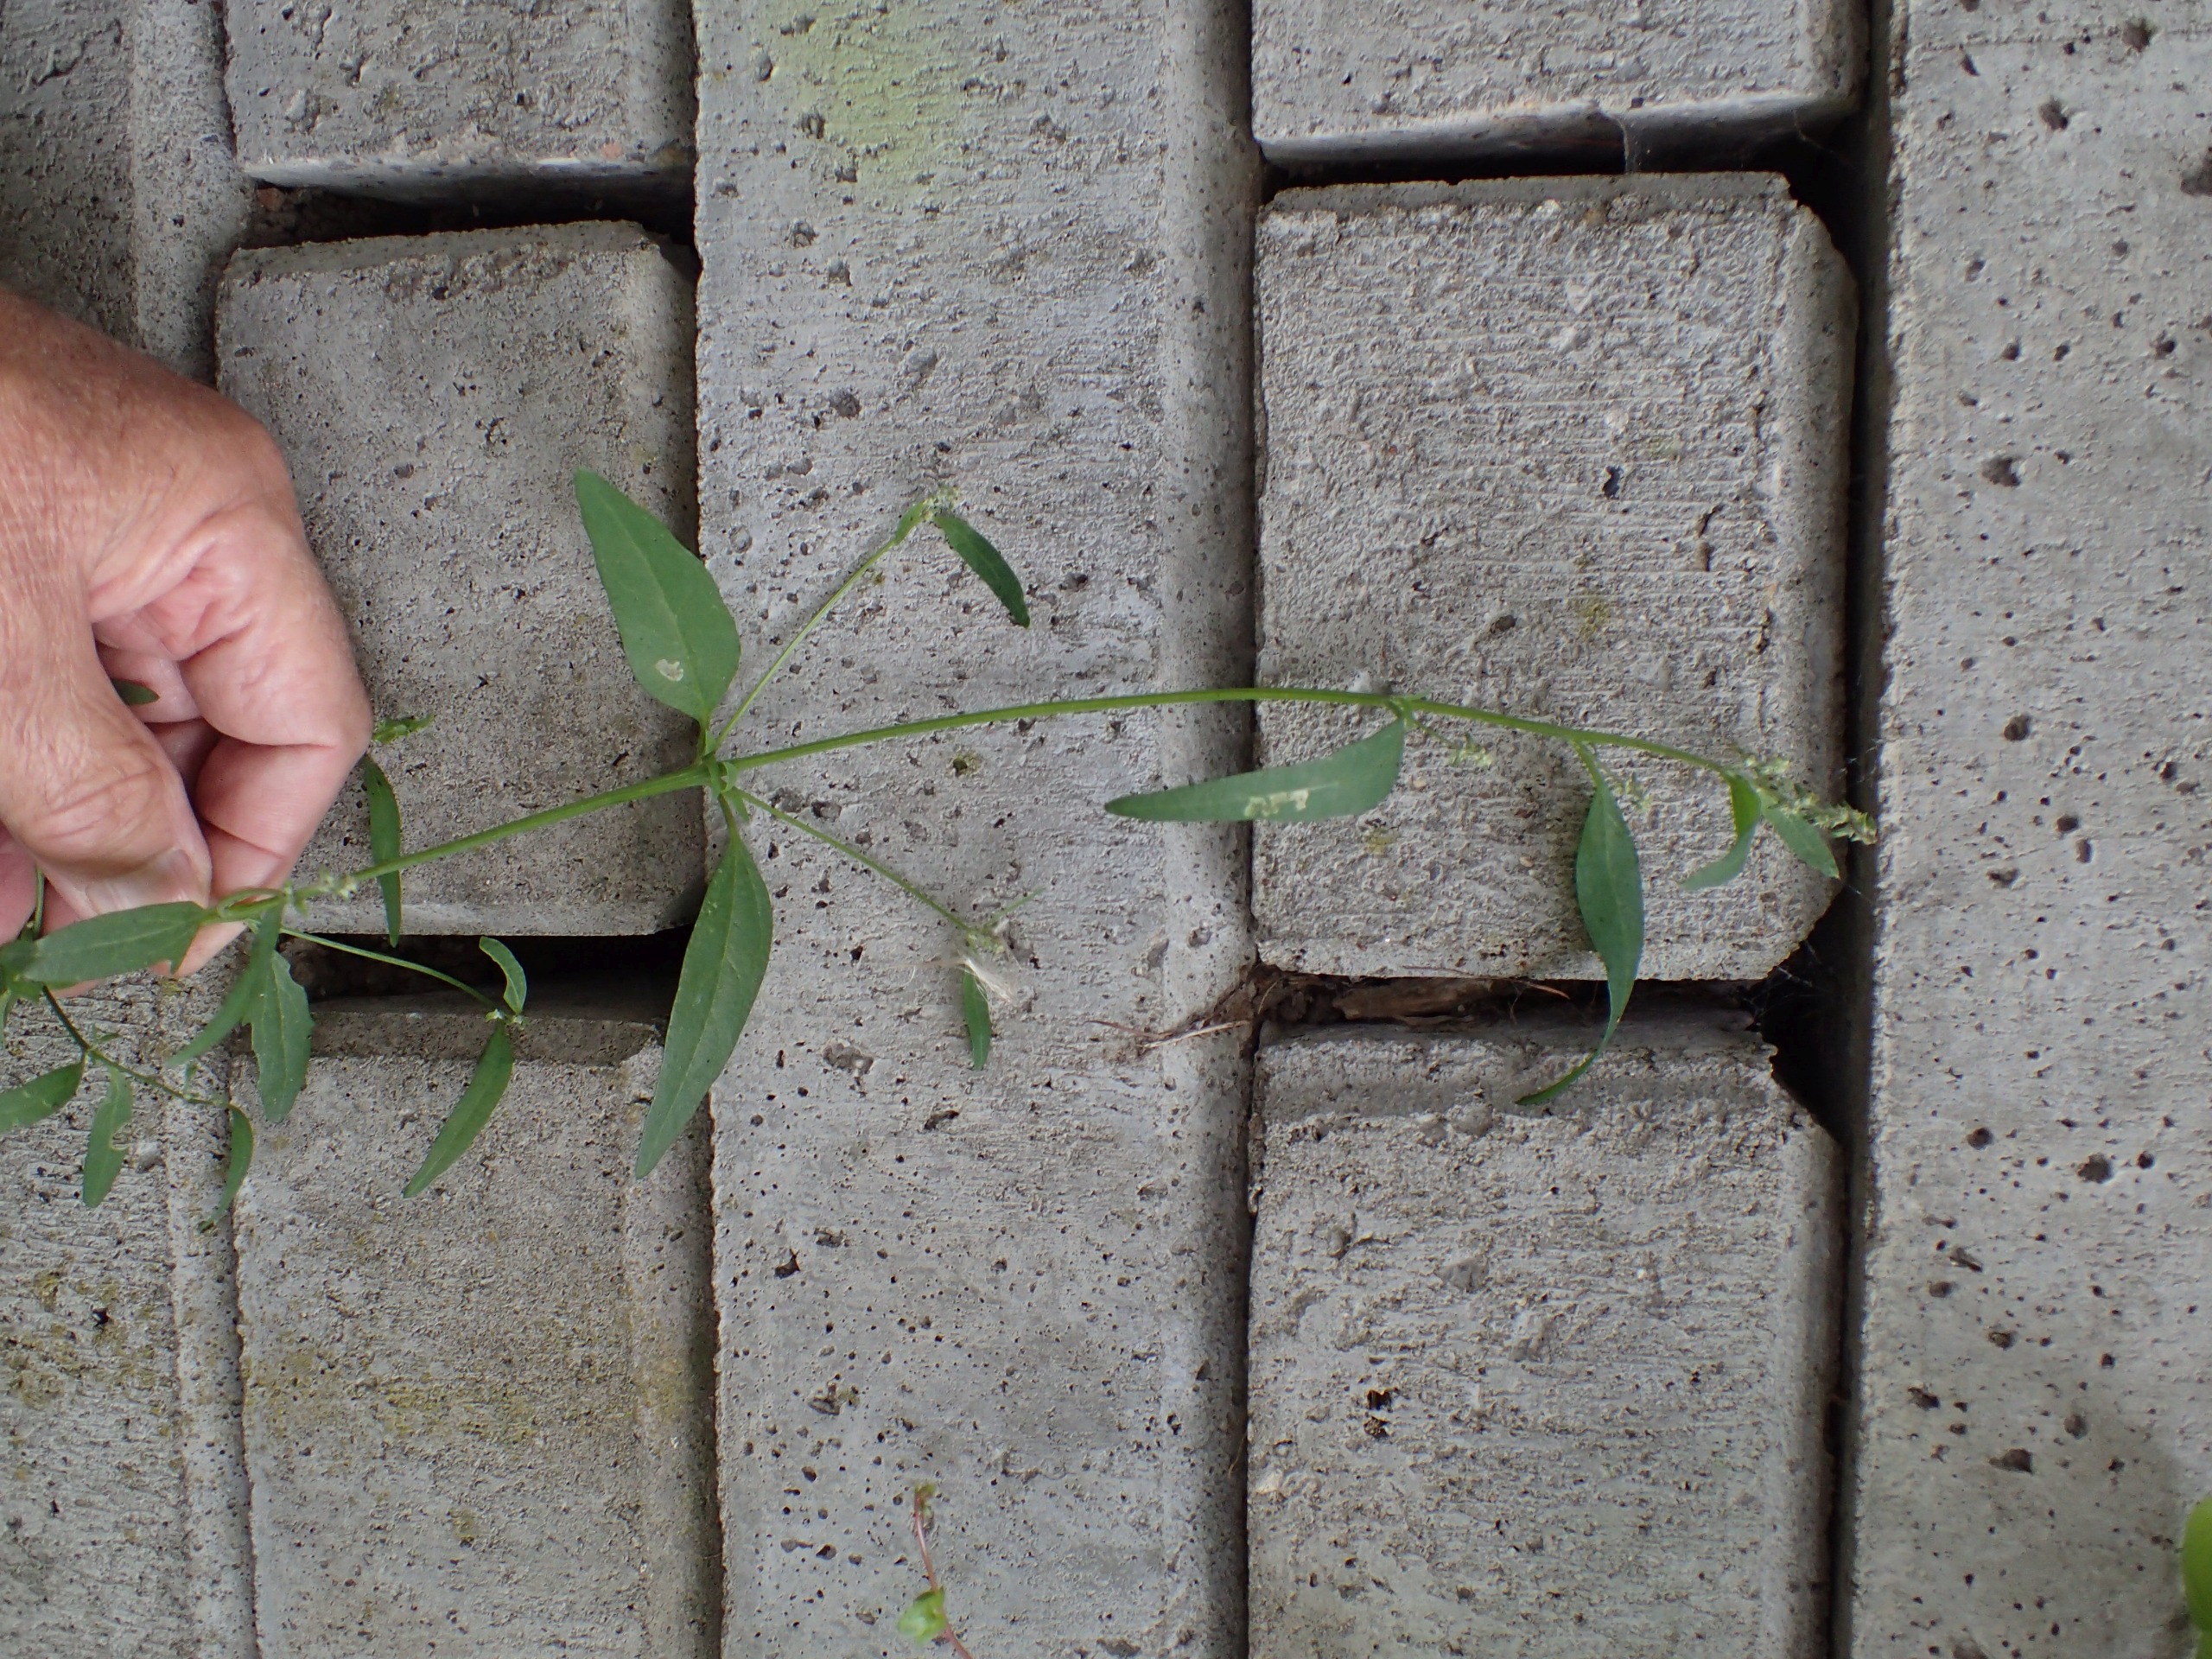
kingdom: Plantae
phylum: Tracheophyta
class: Magnoliopsida
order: Caryophyllales
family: Amaranthaceae
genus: Atriplex
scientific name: Atriplex patula
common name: Svine-mælde
